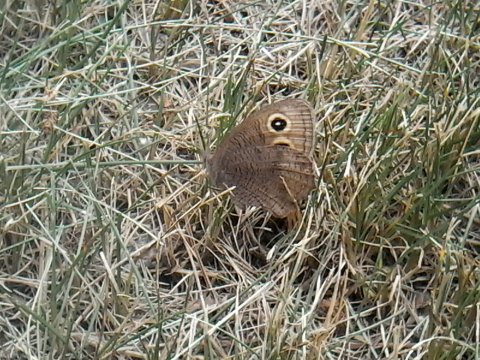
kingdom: Animalia
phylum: Arthropoda
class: Insecta
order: Lepidoptera
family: Nymphalidae
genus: Cercyonis
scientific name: Cercyonis pegala
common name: Common Wood-Nymph
